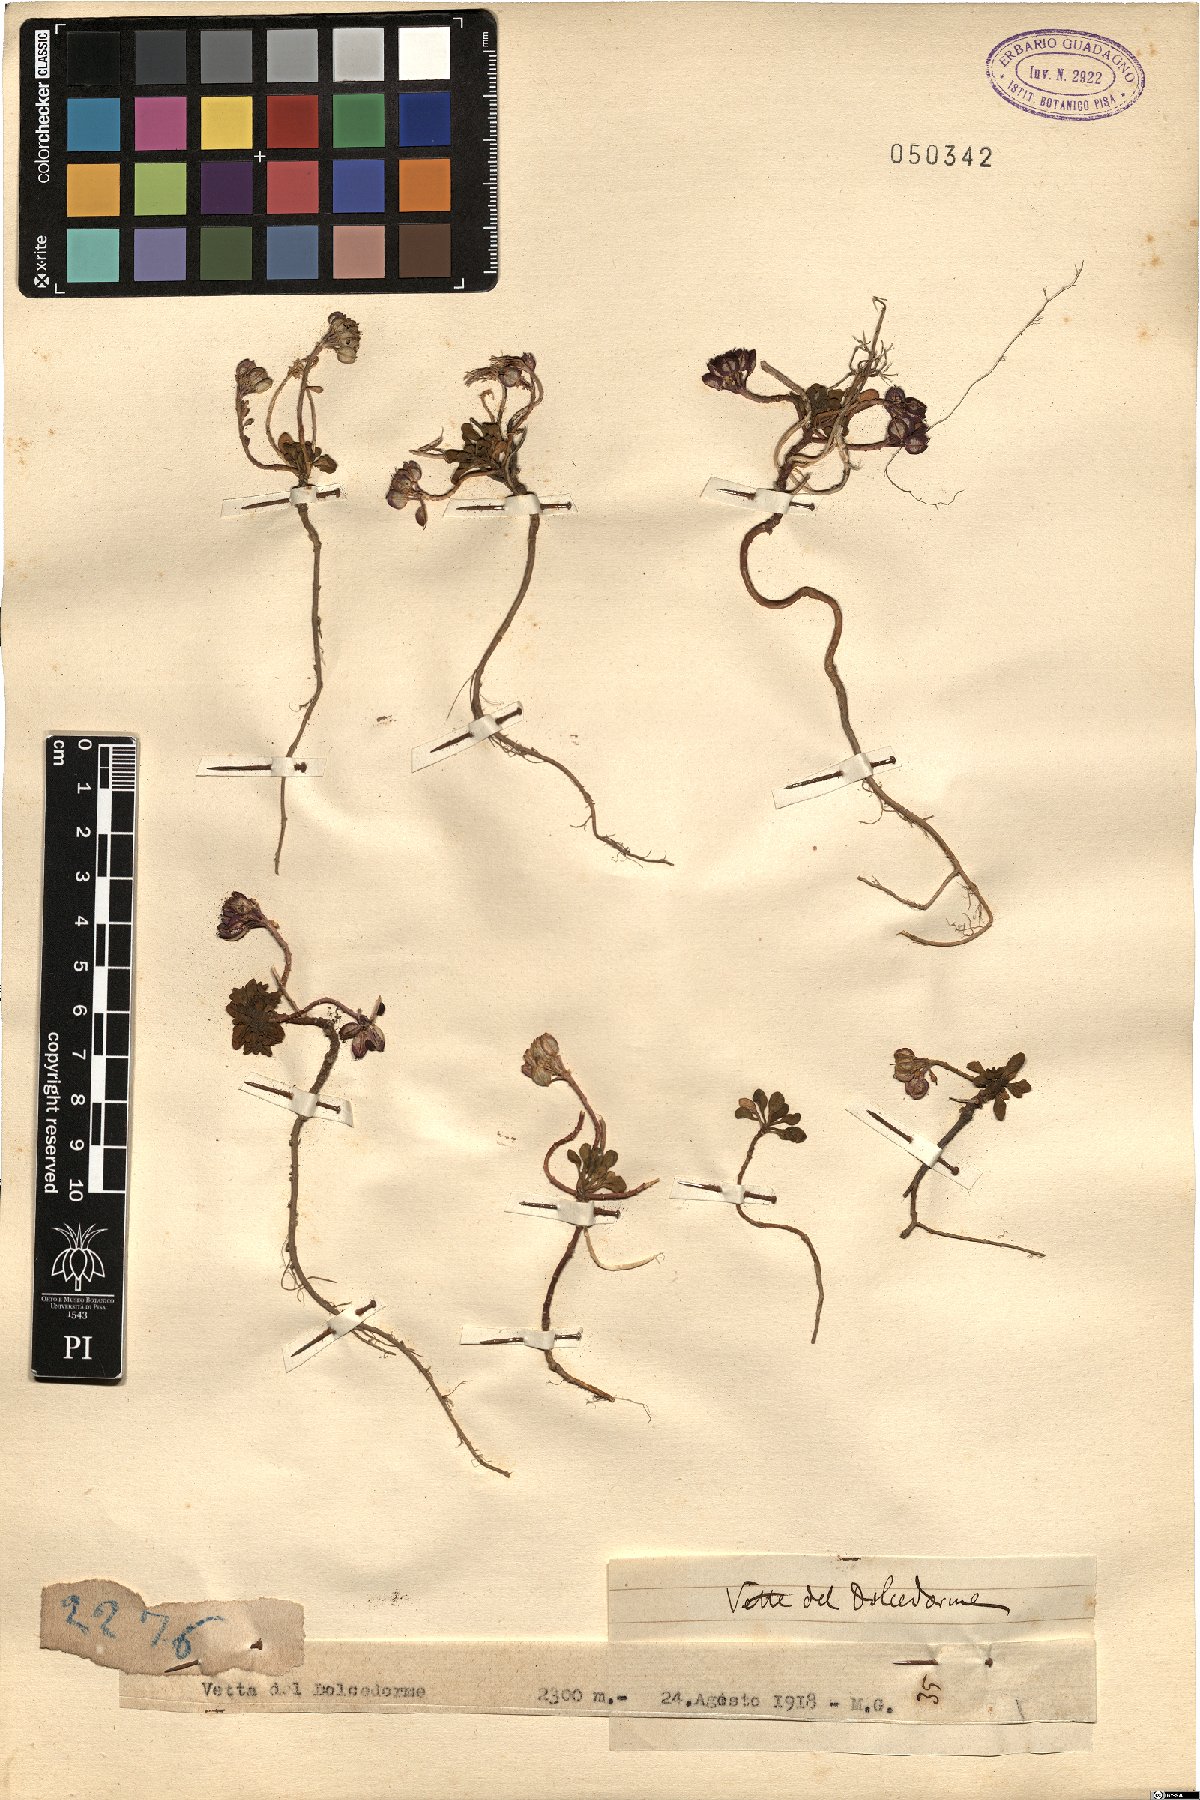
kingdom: Plantae
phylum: Tracheophyta
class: Magnoliopsida
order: Brassicales
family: Brassicaceae
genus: Iberis
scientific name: Iberis
